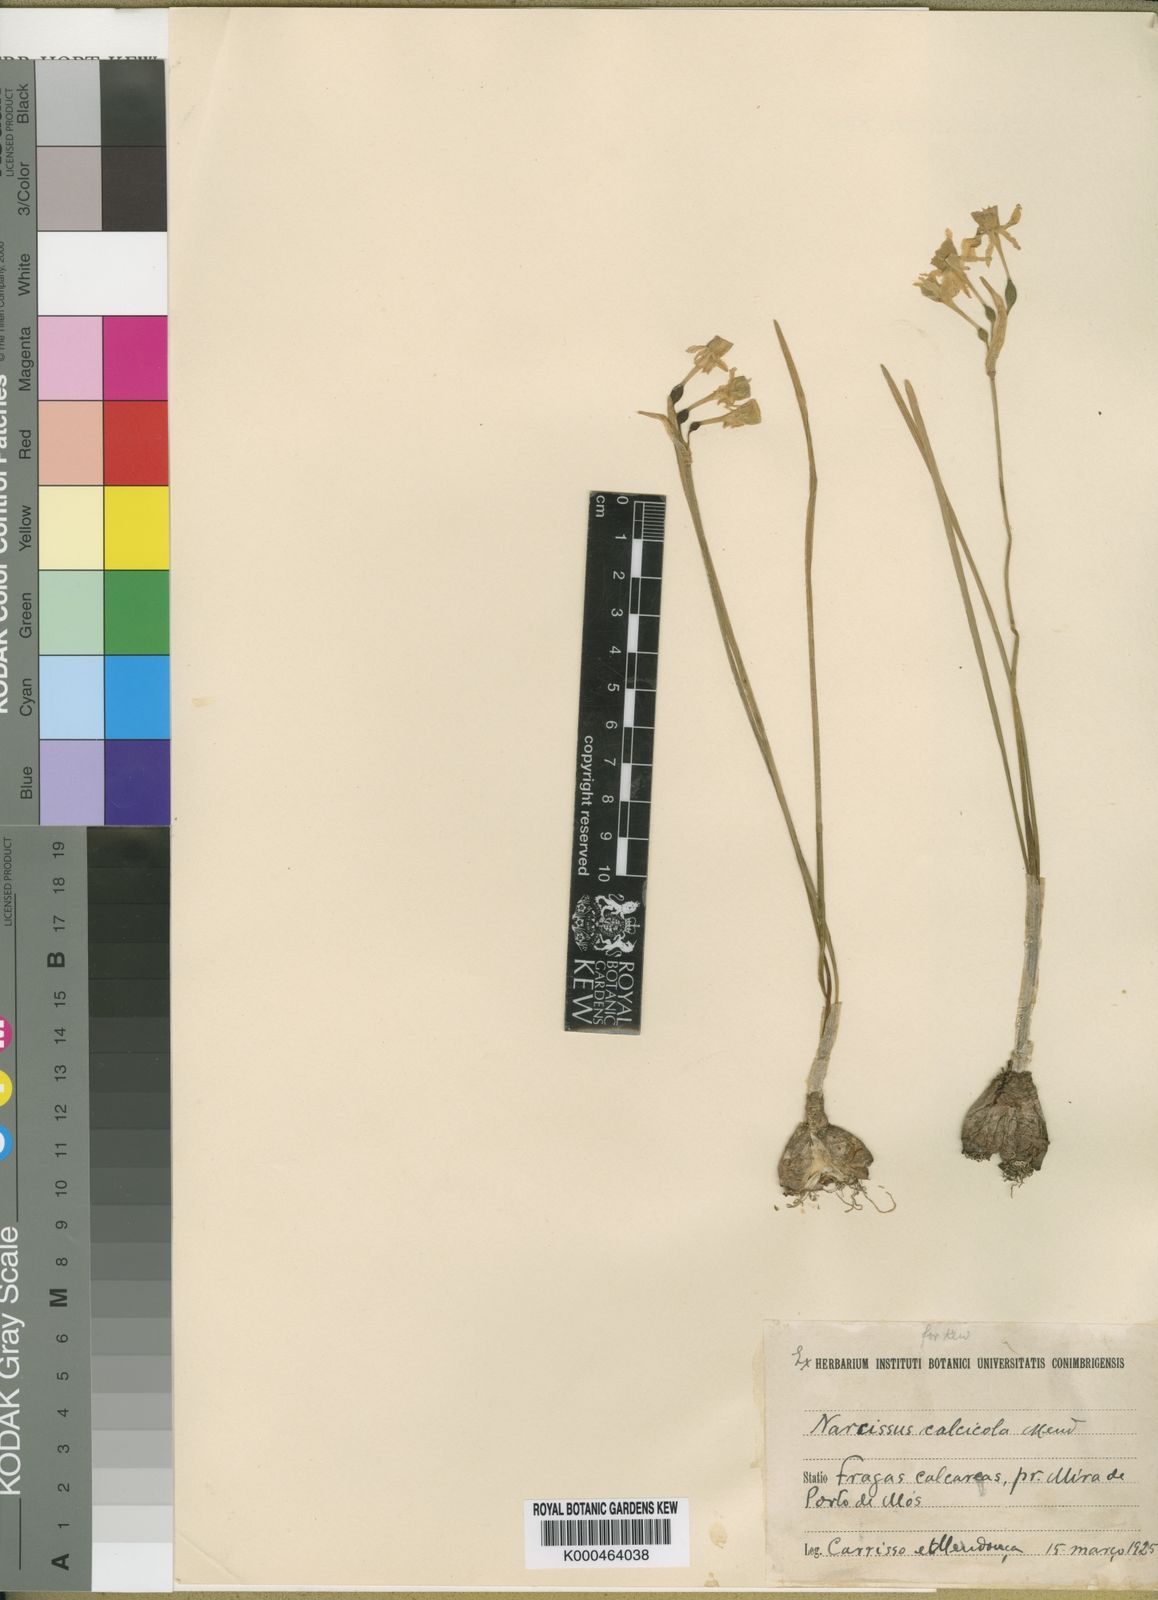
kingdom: Plantae
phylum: Tracheophyta
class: Liliopsida
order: Asparagales
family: Amaryllidaceae
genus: Narcissus
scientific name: Narcissus calcicola
